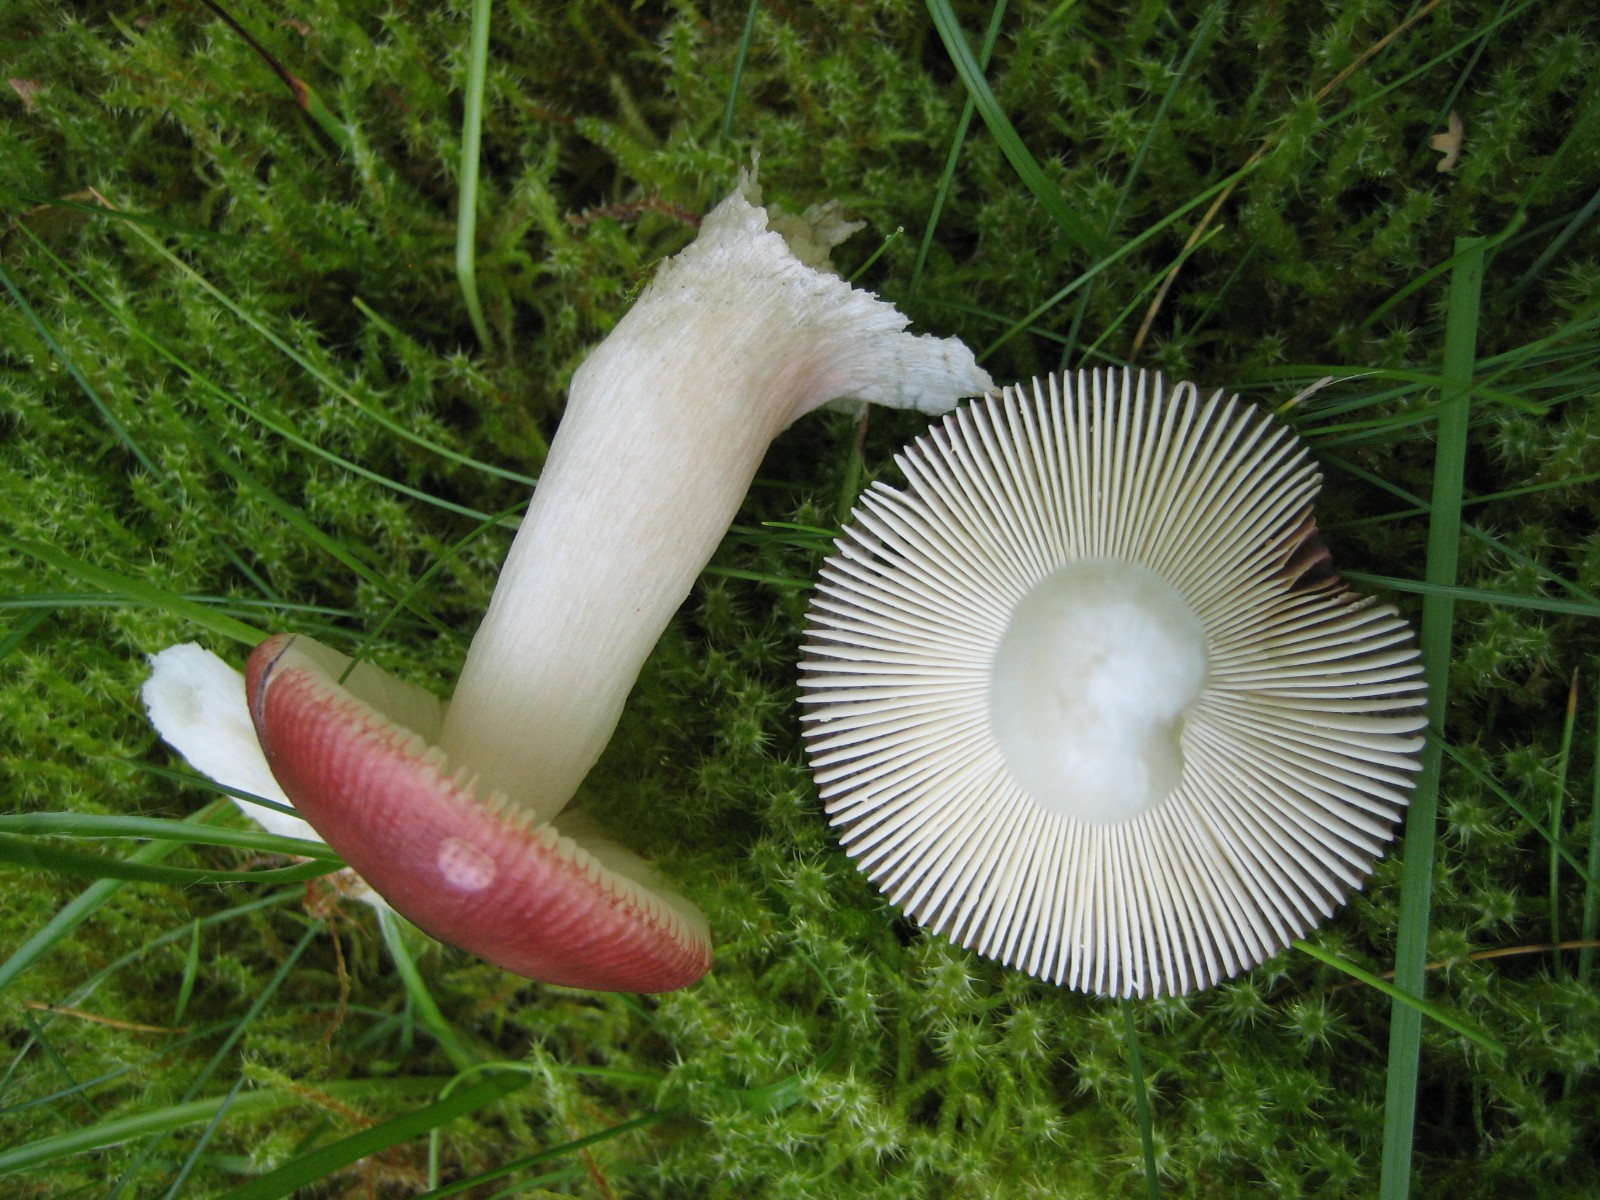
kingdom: Fungi
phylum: Basidiomycota
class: Agaricomycetes
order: Russulales
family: Russulaceae
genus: Russula
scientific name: Russula
